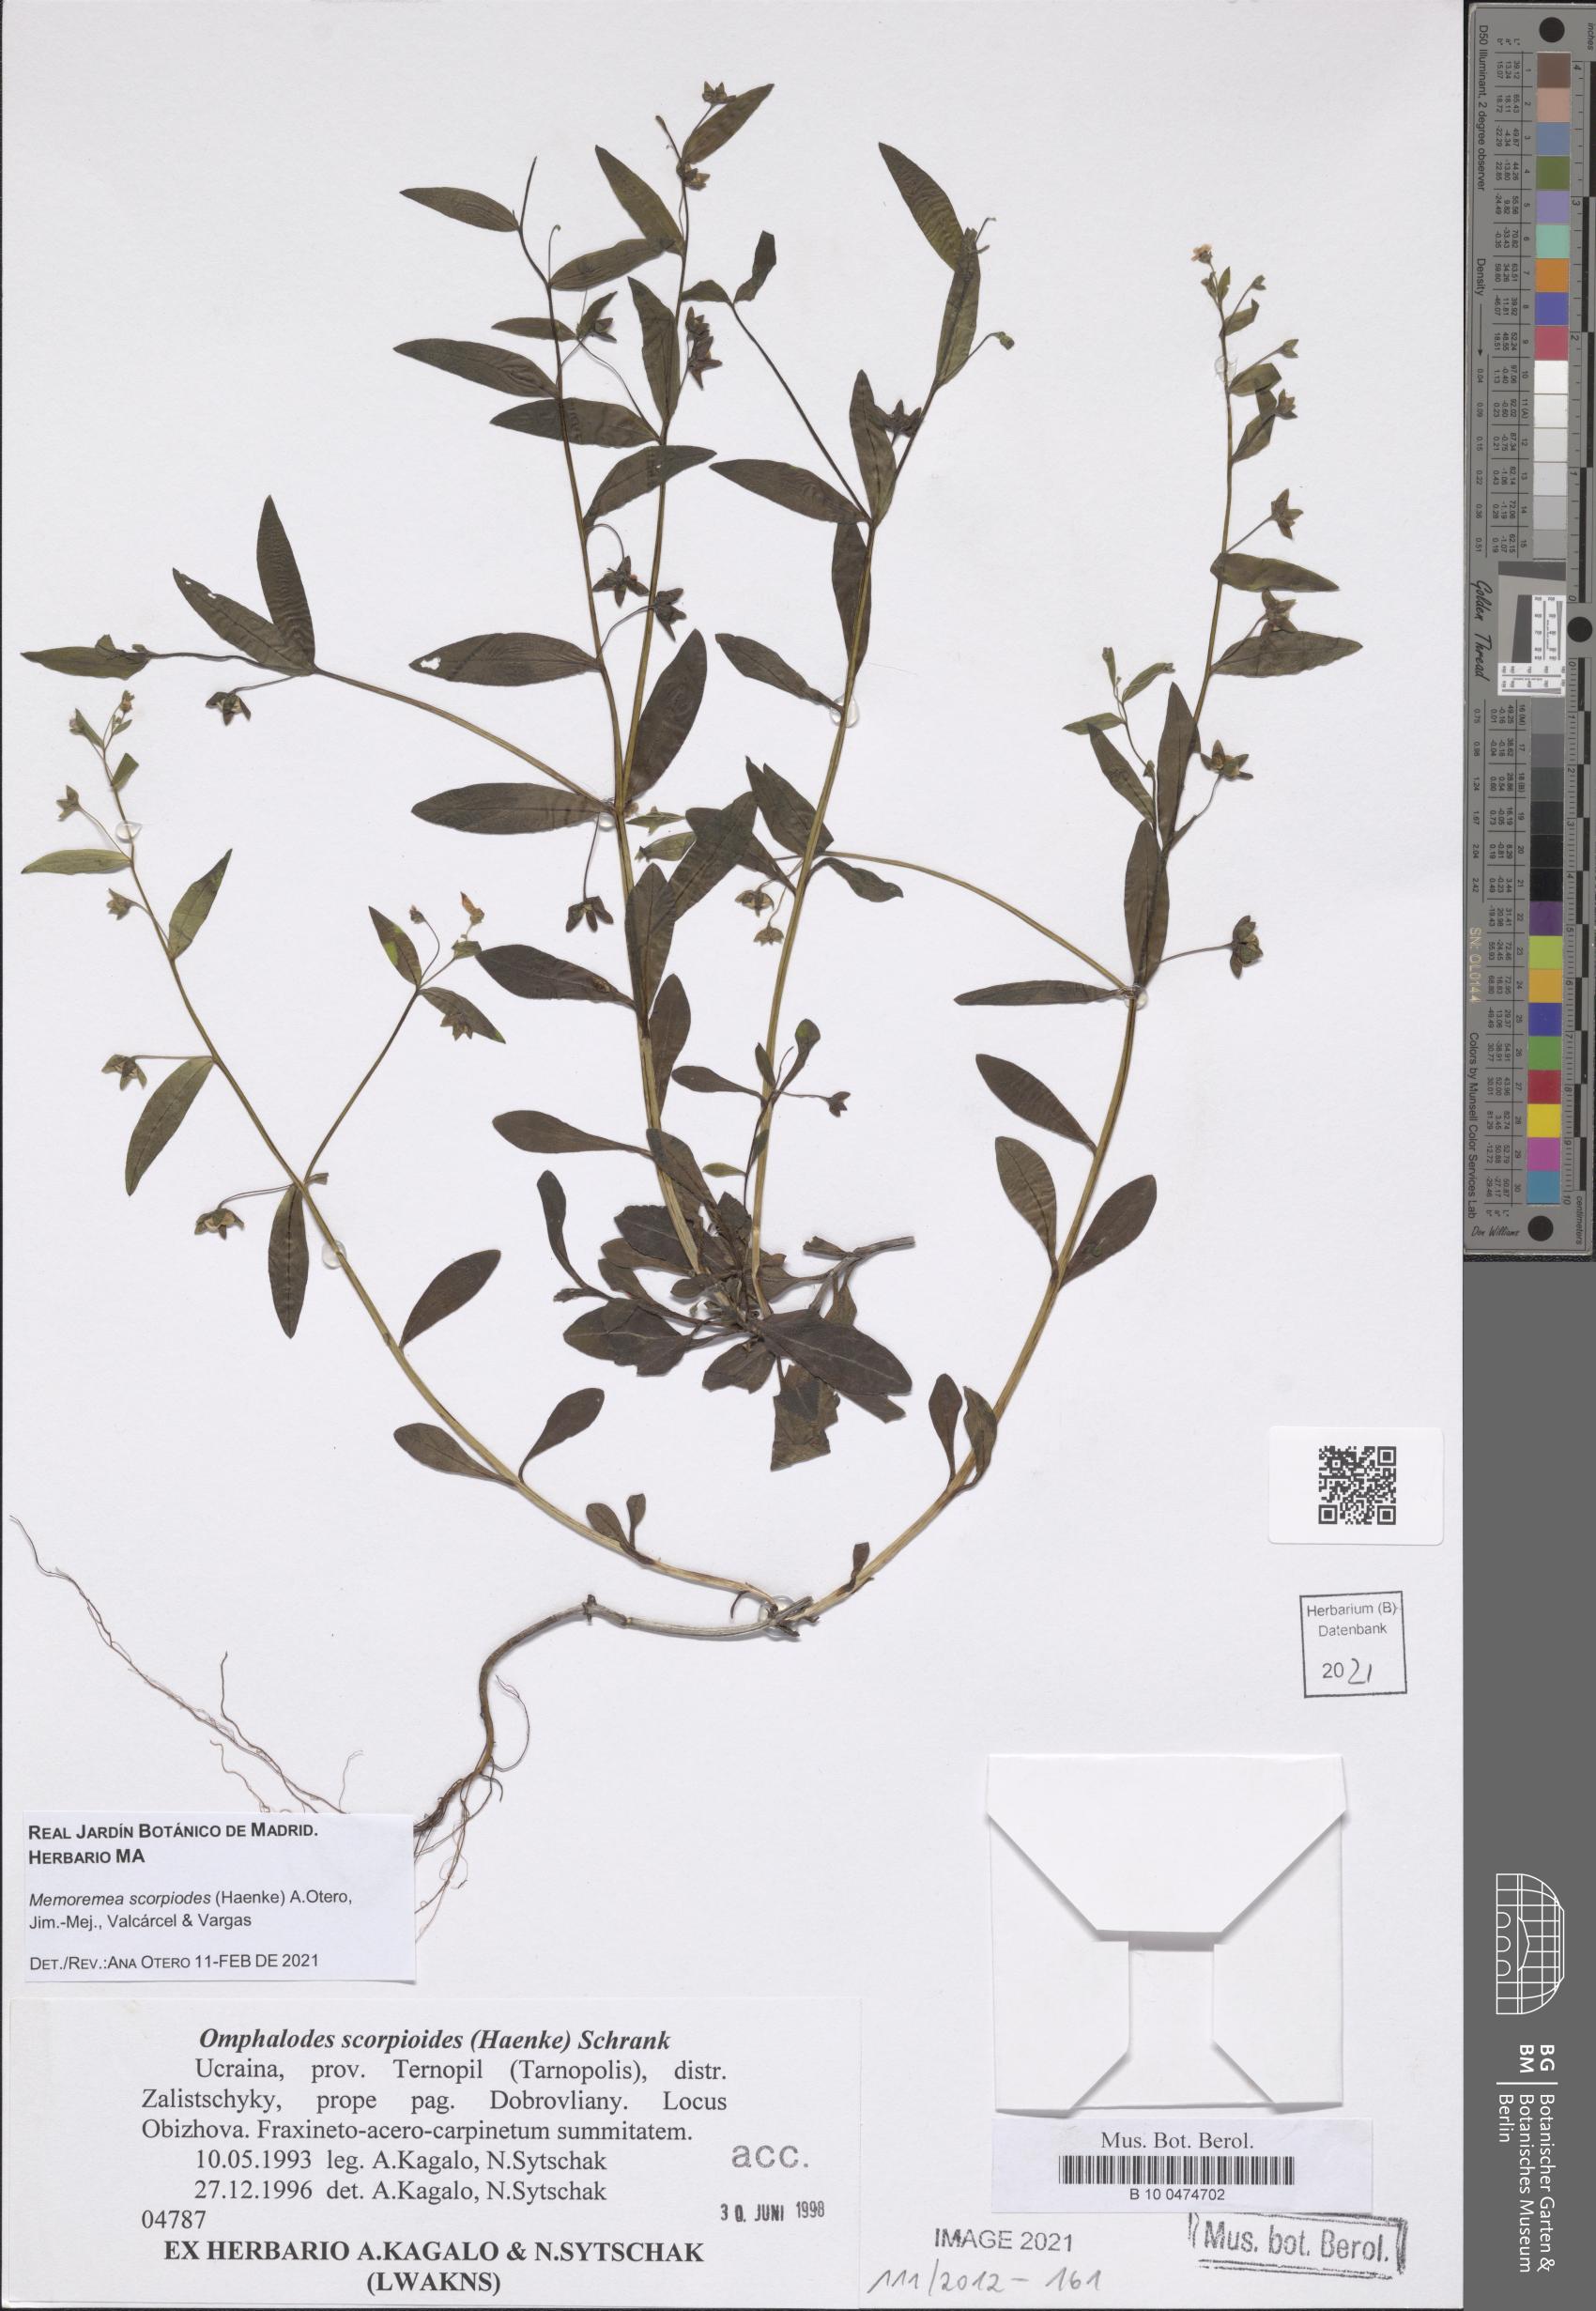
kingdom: Plantae
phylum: Tracheophyta
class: Magnoliopsida
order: Boraginales
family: Boraginaceae
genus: Memoremea
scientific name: Memoremea scorpioides
